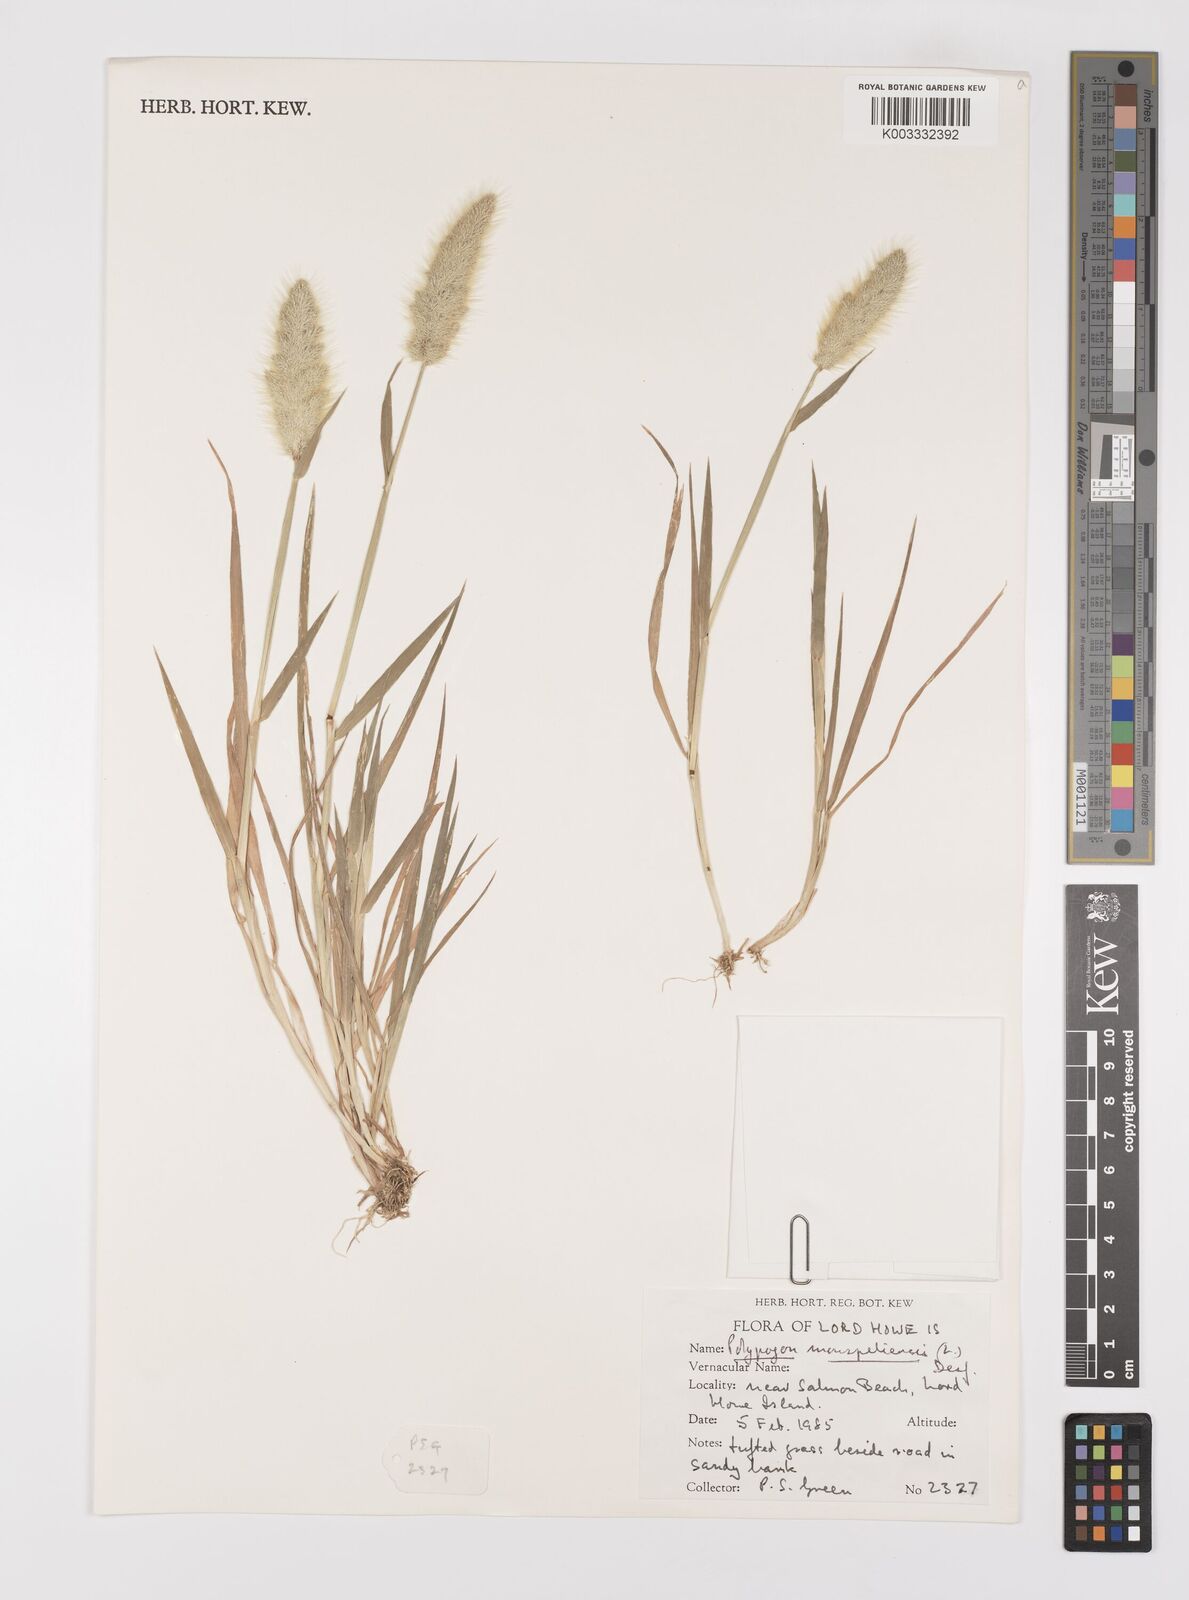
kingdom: Plantae
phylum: Tracheophyta
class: Liliopsida
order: Poales
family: Poaceae
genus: Polypogon
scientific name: Polypogon monspeliensis
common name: Annual rabbitsfoot grass
